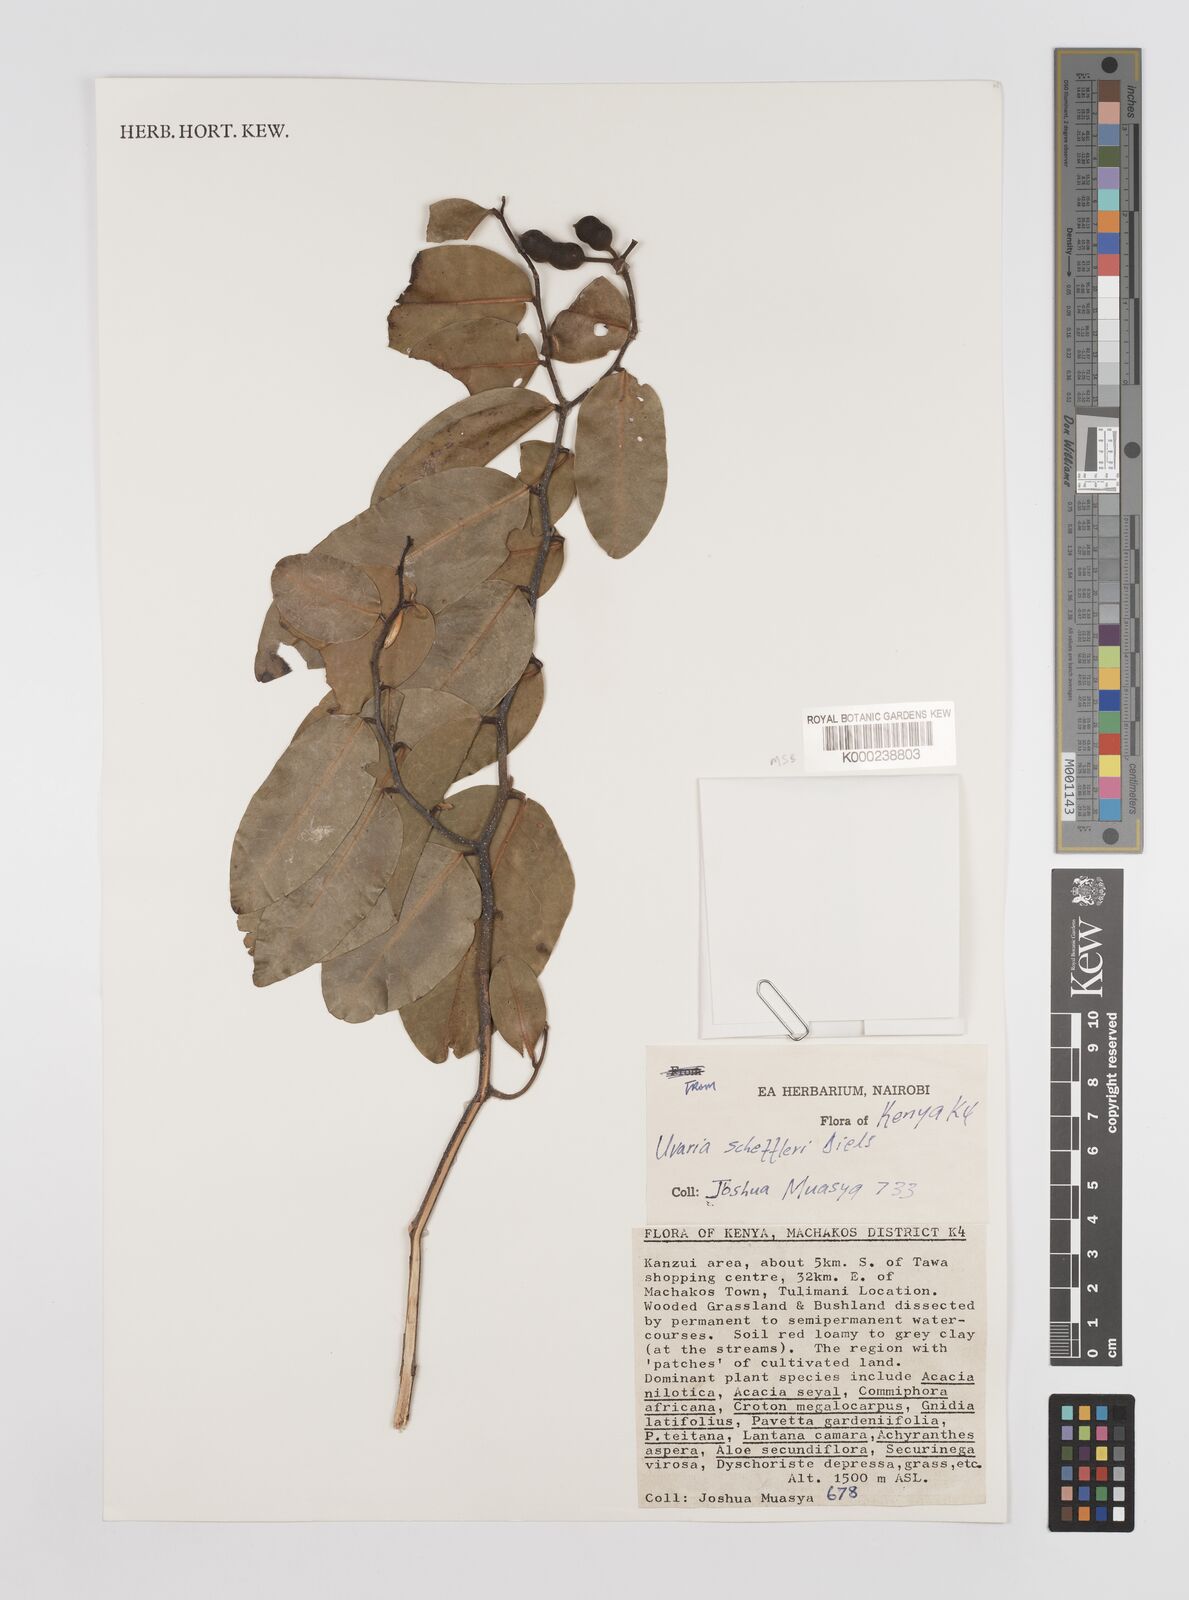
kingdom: Plantae
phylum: Tracheophyta
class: Magnoliopsida
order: Magnoliales
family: Annonaceae
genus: Uvaria
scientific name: Uvaria scheffleri
